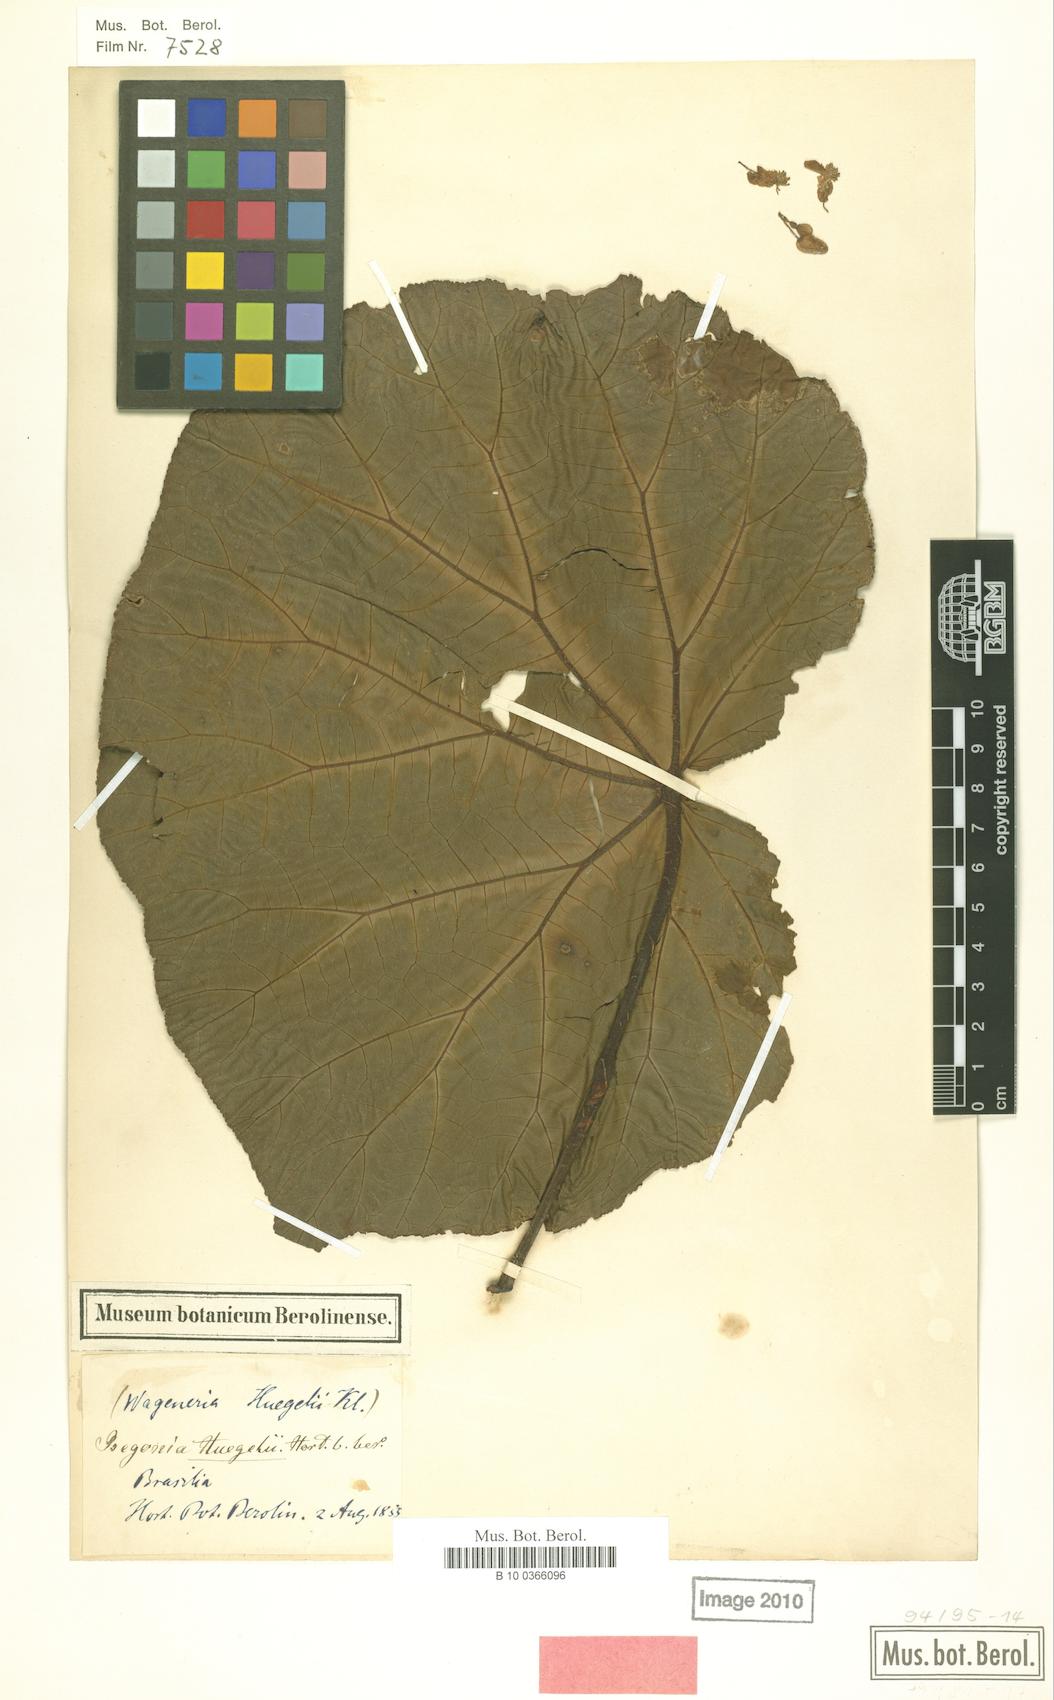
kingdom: Plantae
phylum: Tracheophyta
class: Magnoliopsida
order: Cucurbitales
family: Begoniaceae
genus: Begonia
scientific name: Begonia huegelii
